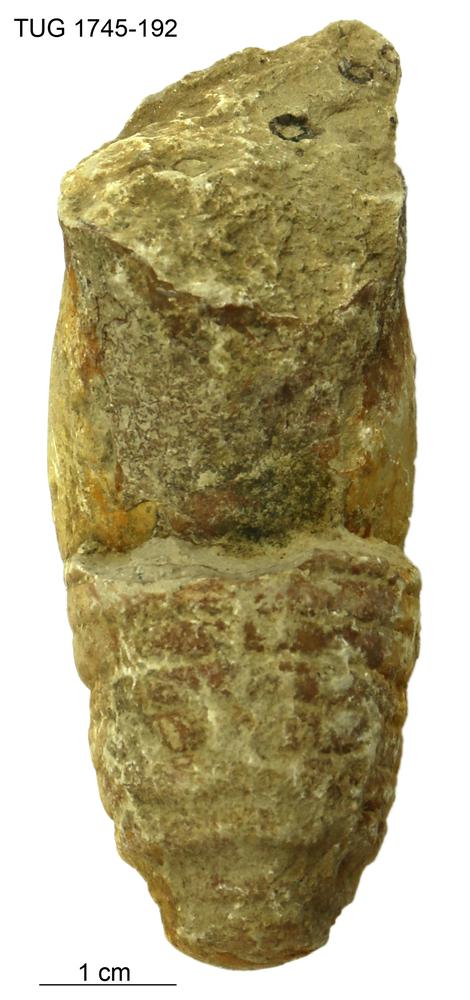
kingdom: Animalia
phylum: Mollusca
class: Cephalopoda
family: Protophragmoceratidae
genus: Parryoceras
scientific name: Parryoceras
